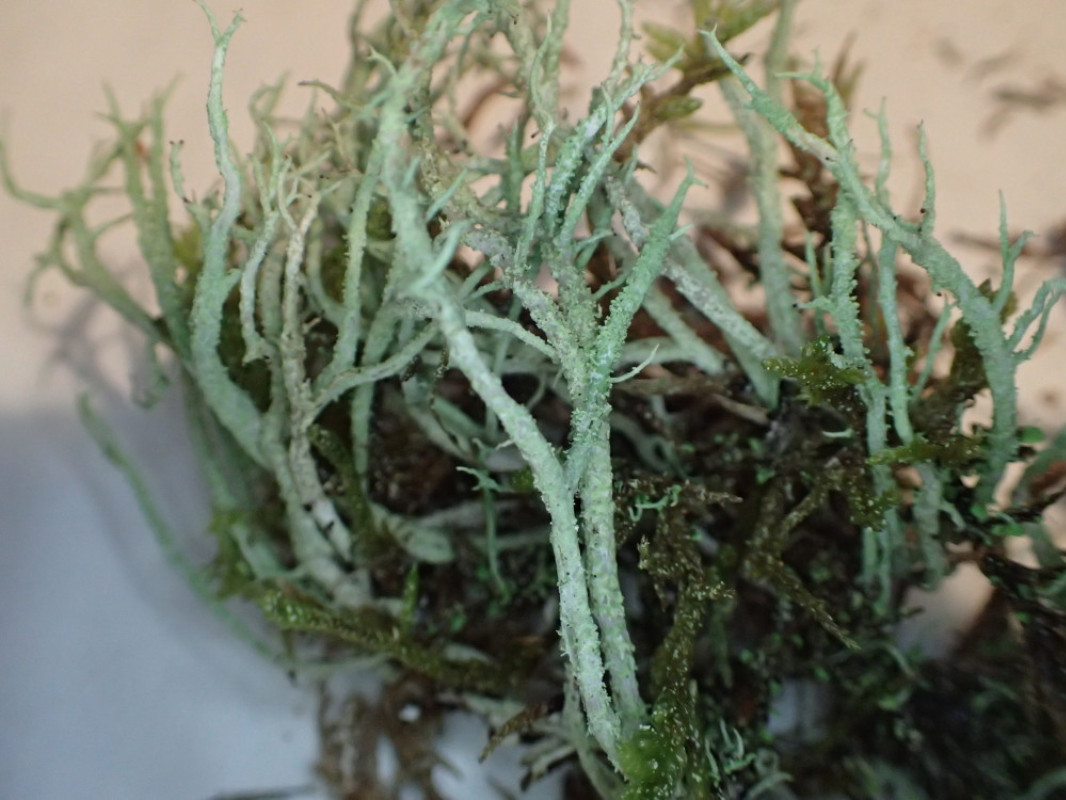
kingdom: Fungi
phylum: Ascomycota
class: Lecanoromycetes
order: Lecanorales
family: Cladoniaceae
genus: Cladonia
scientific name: Cladonia scabriuscula
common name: ru bægerlav
